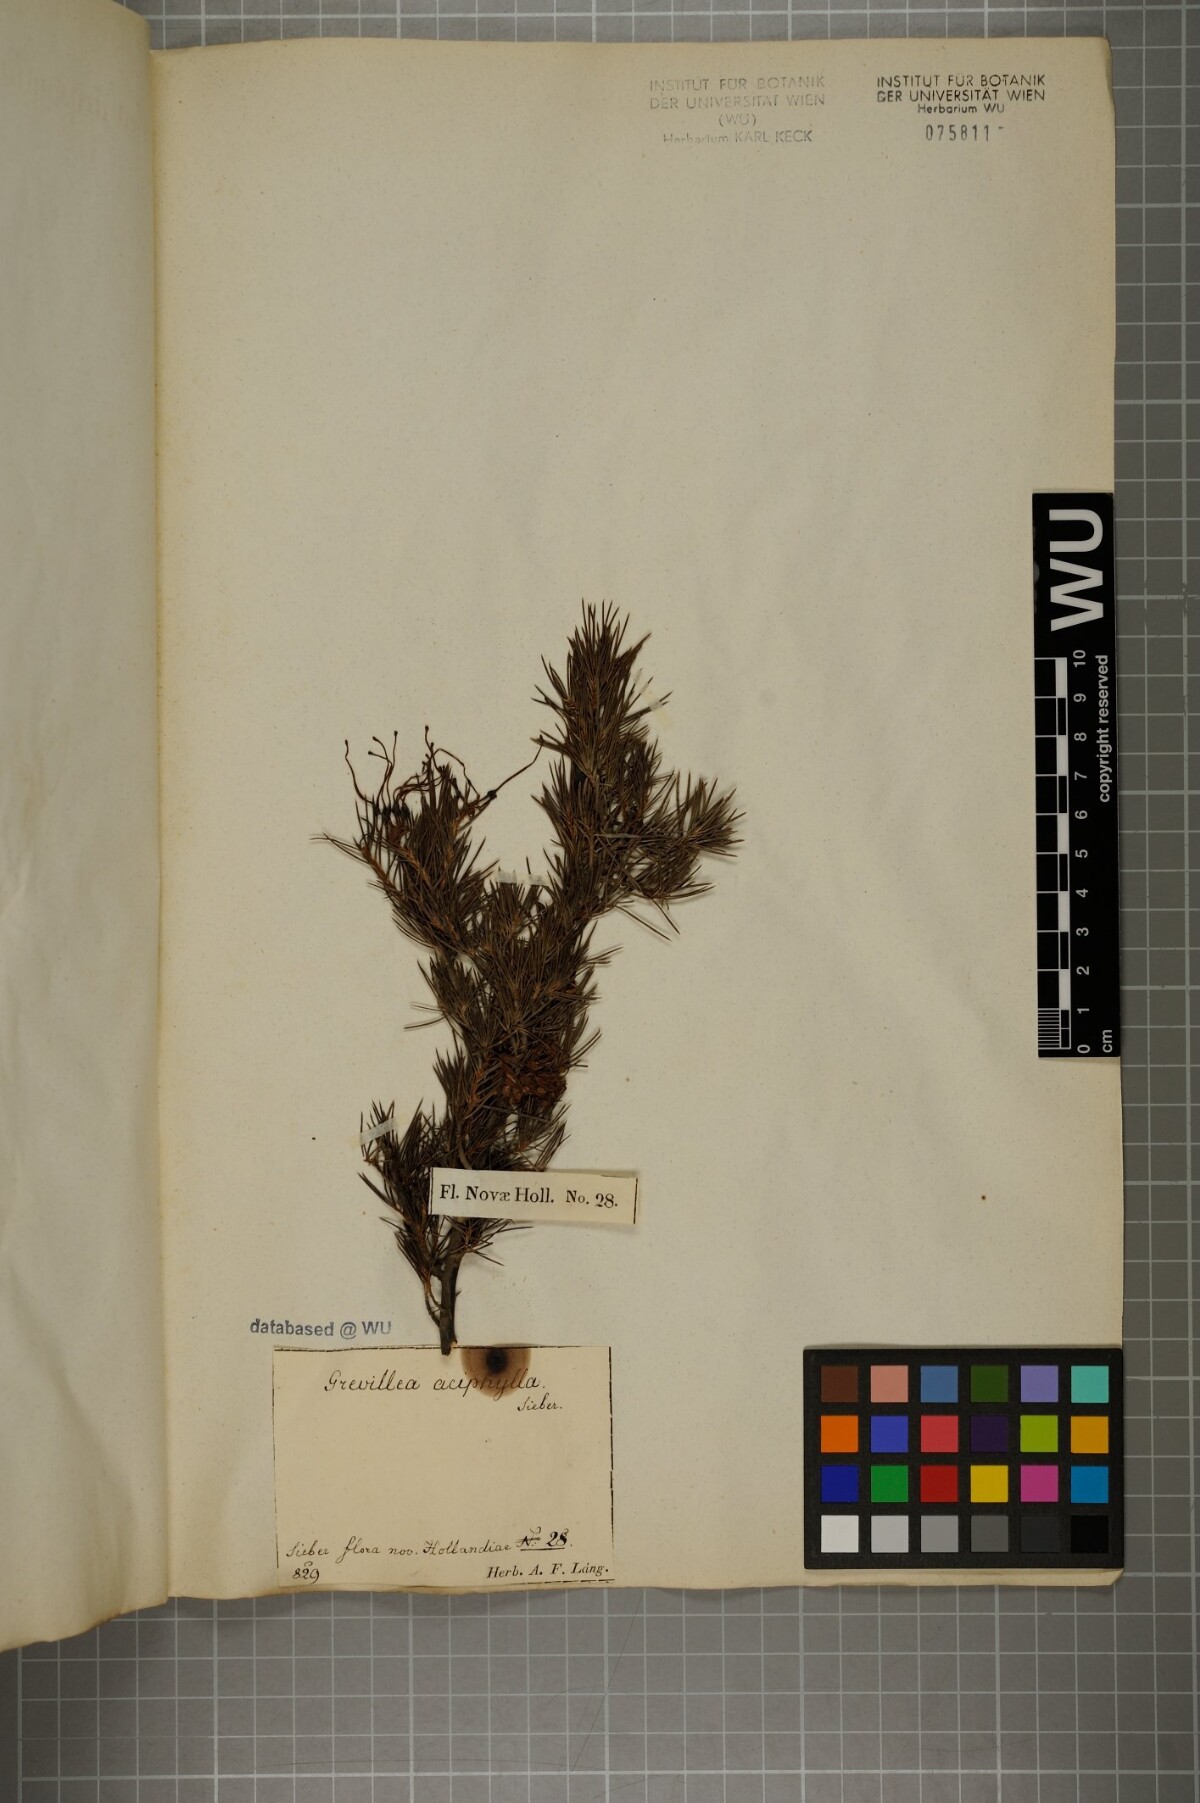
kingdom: Plantae
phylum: Tracheophyta
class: Magnoliopsida
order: Proteales
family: Proteaceae
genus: Grevillea
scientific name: Grevillea juniperina
